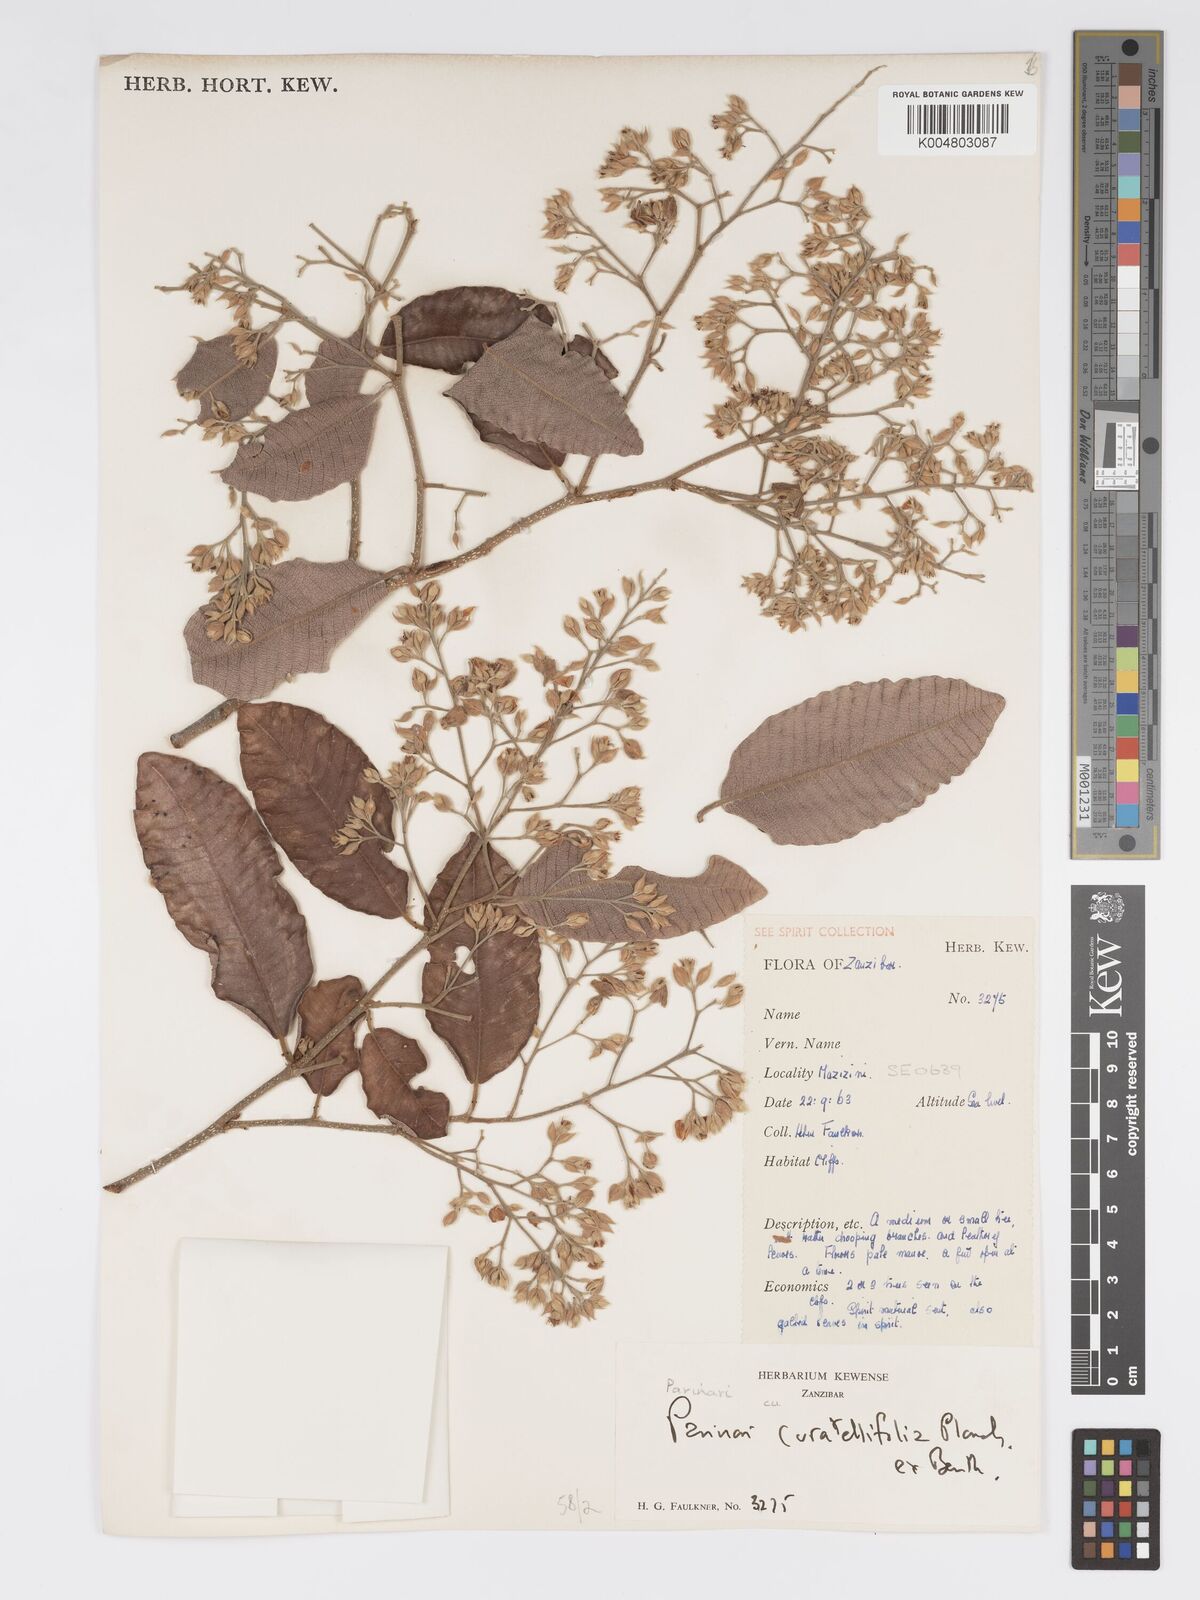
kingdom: Plantae
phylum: Tracheophyta
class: Magnoliopsida
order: Malpighiales
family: Chrysobalanaceae
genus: Parinari
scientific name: Parinari curatellifolia
